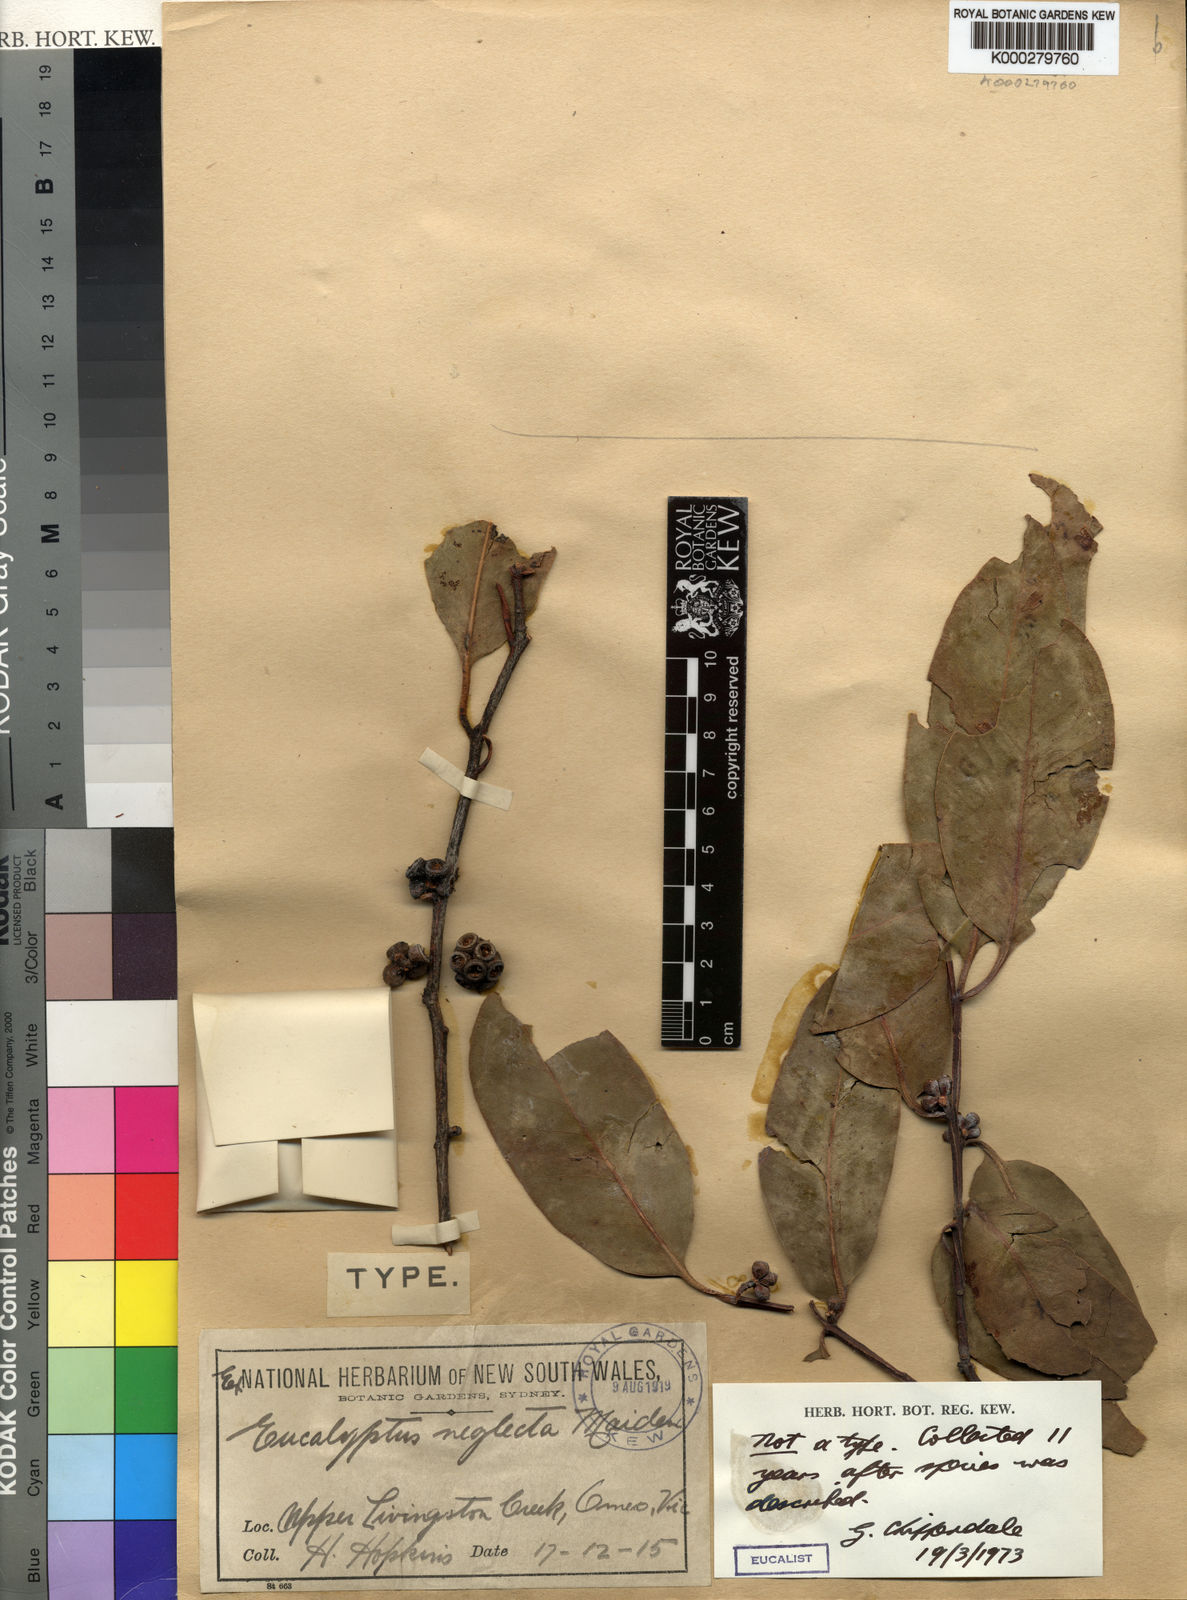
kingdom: Plantae
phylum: Tracheophyta
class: Magnoliopsida
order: Myrtales
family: Myrtaceae
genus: Eucalyptus
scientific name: Eucalyptus neglecta
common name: Omeo gum
